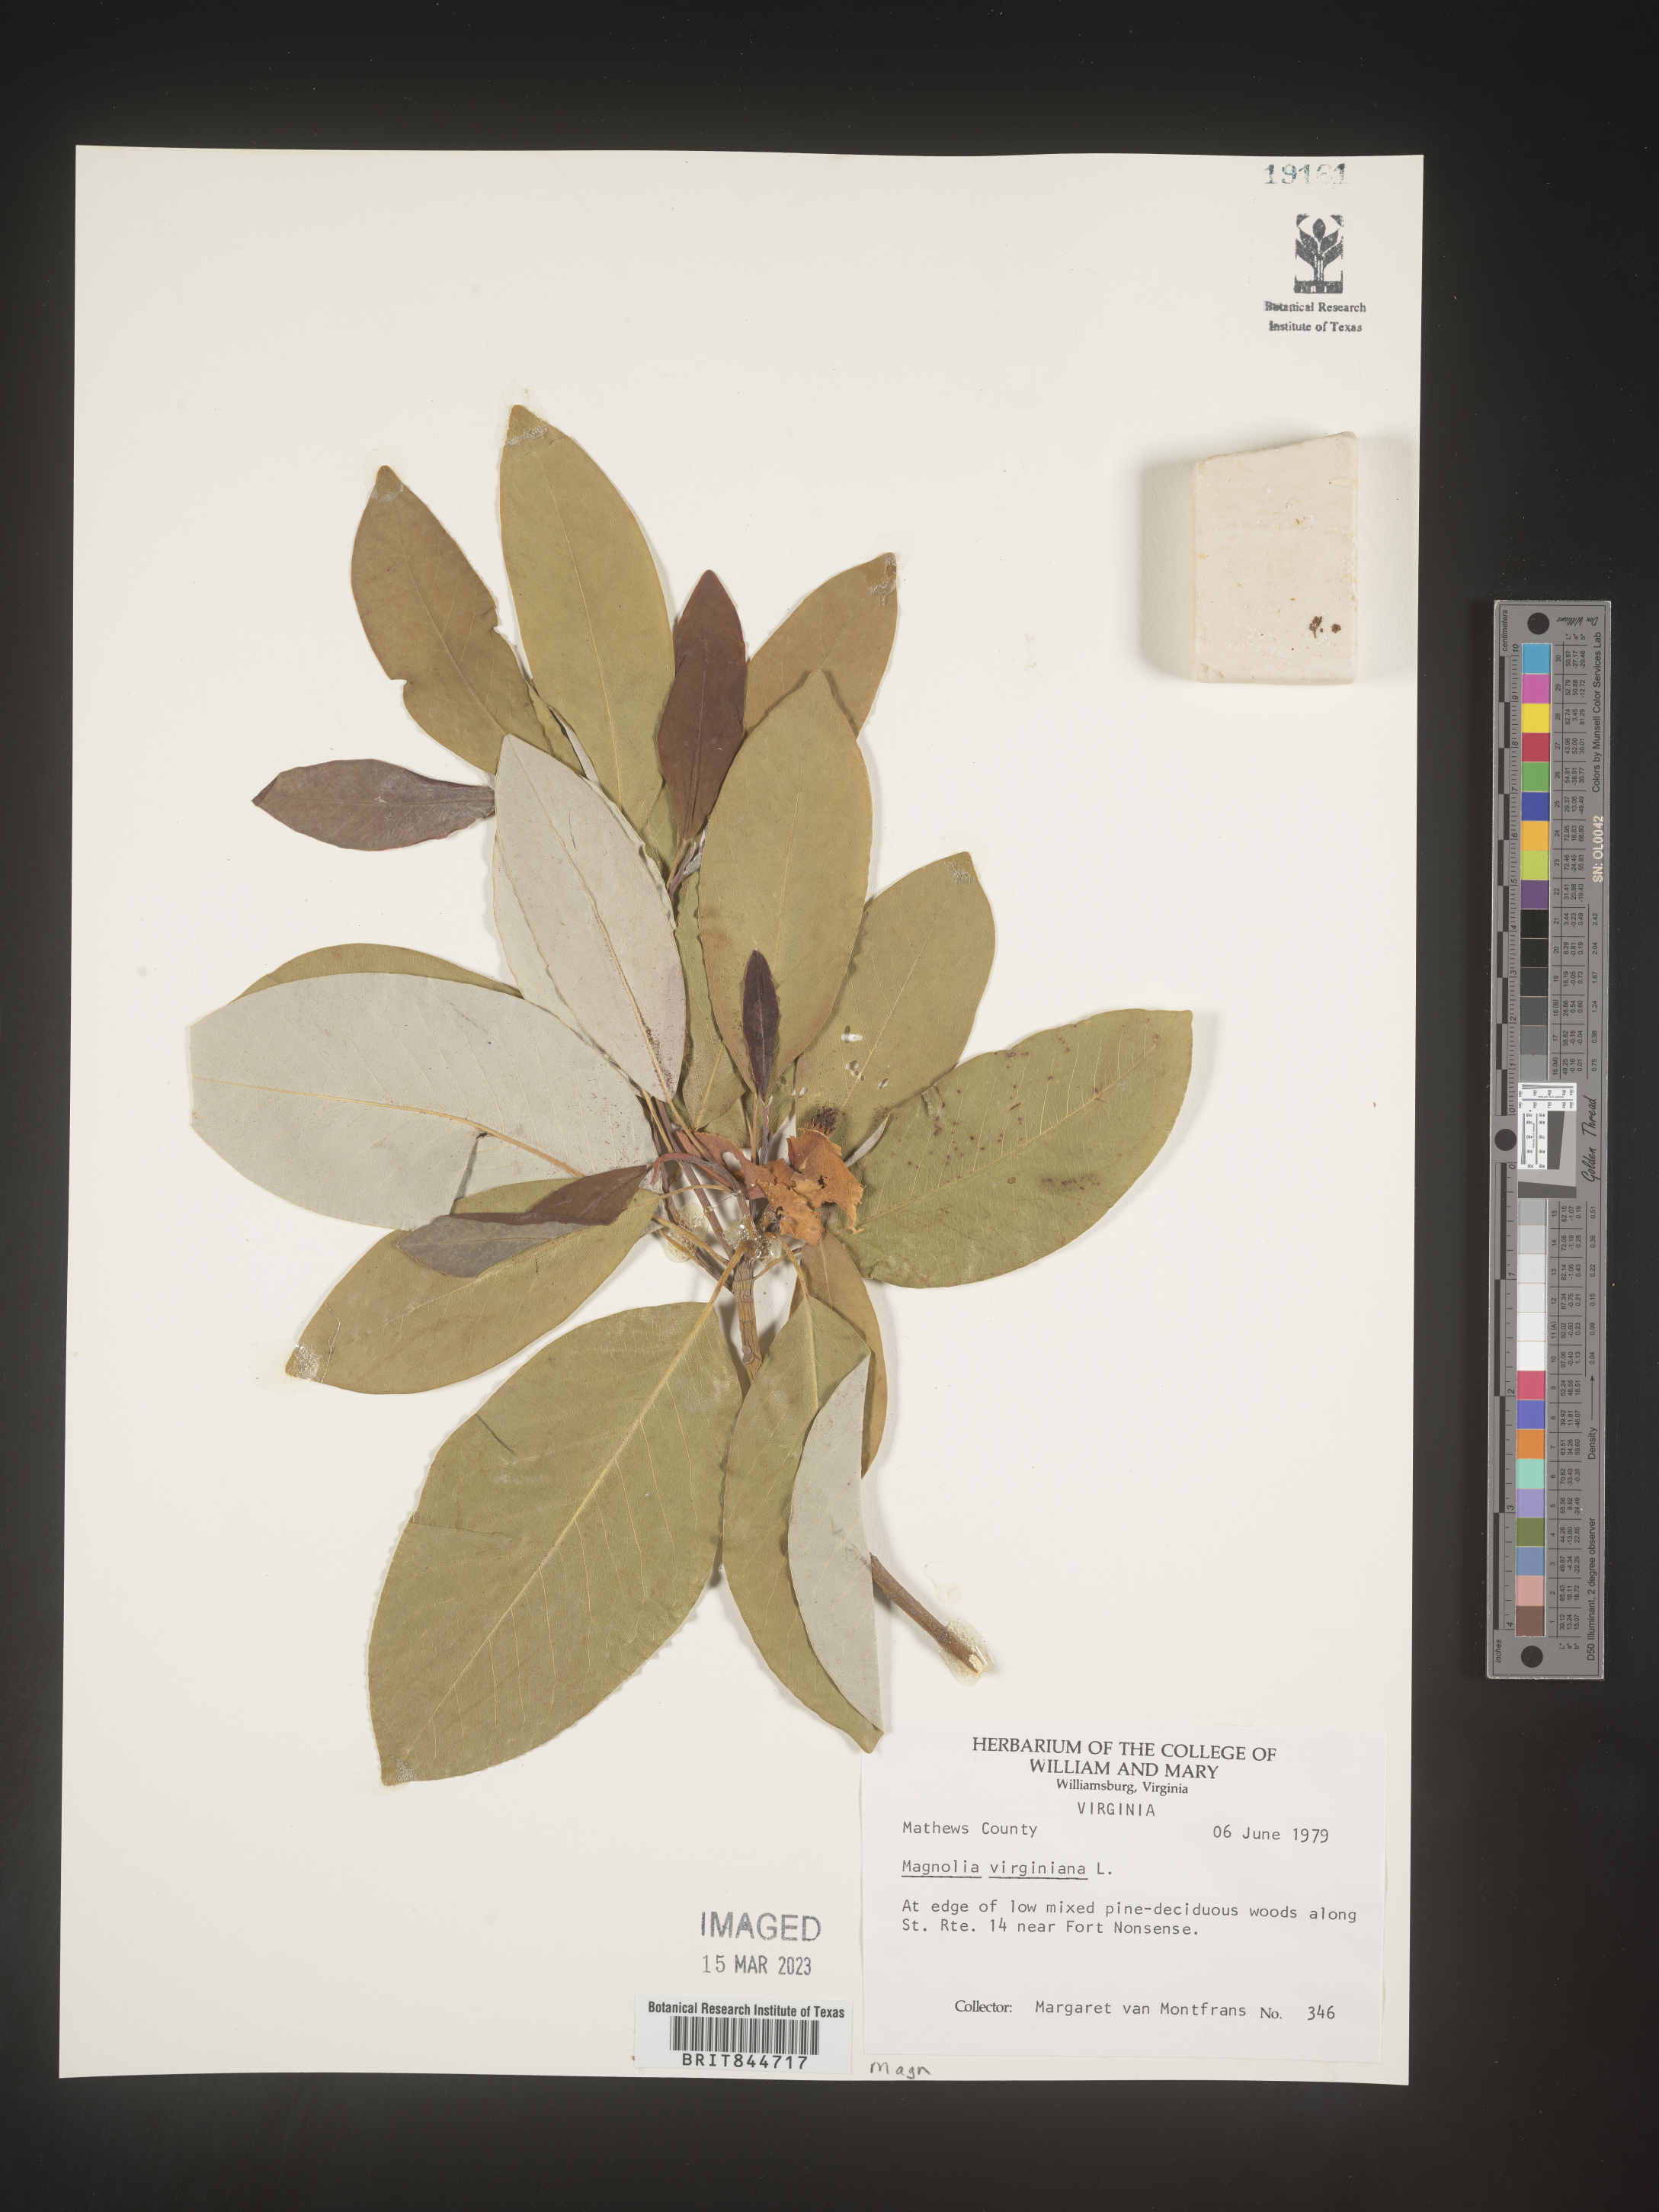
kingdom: Plantae
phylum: Tracheophyta
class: Magnoliopsida
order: Magnoliales
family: Magnoliaceae
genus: Magnolia
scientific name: Magnolia virginiana
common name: Swamp bay
